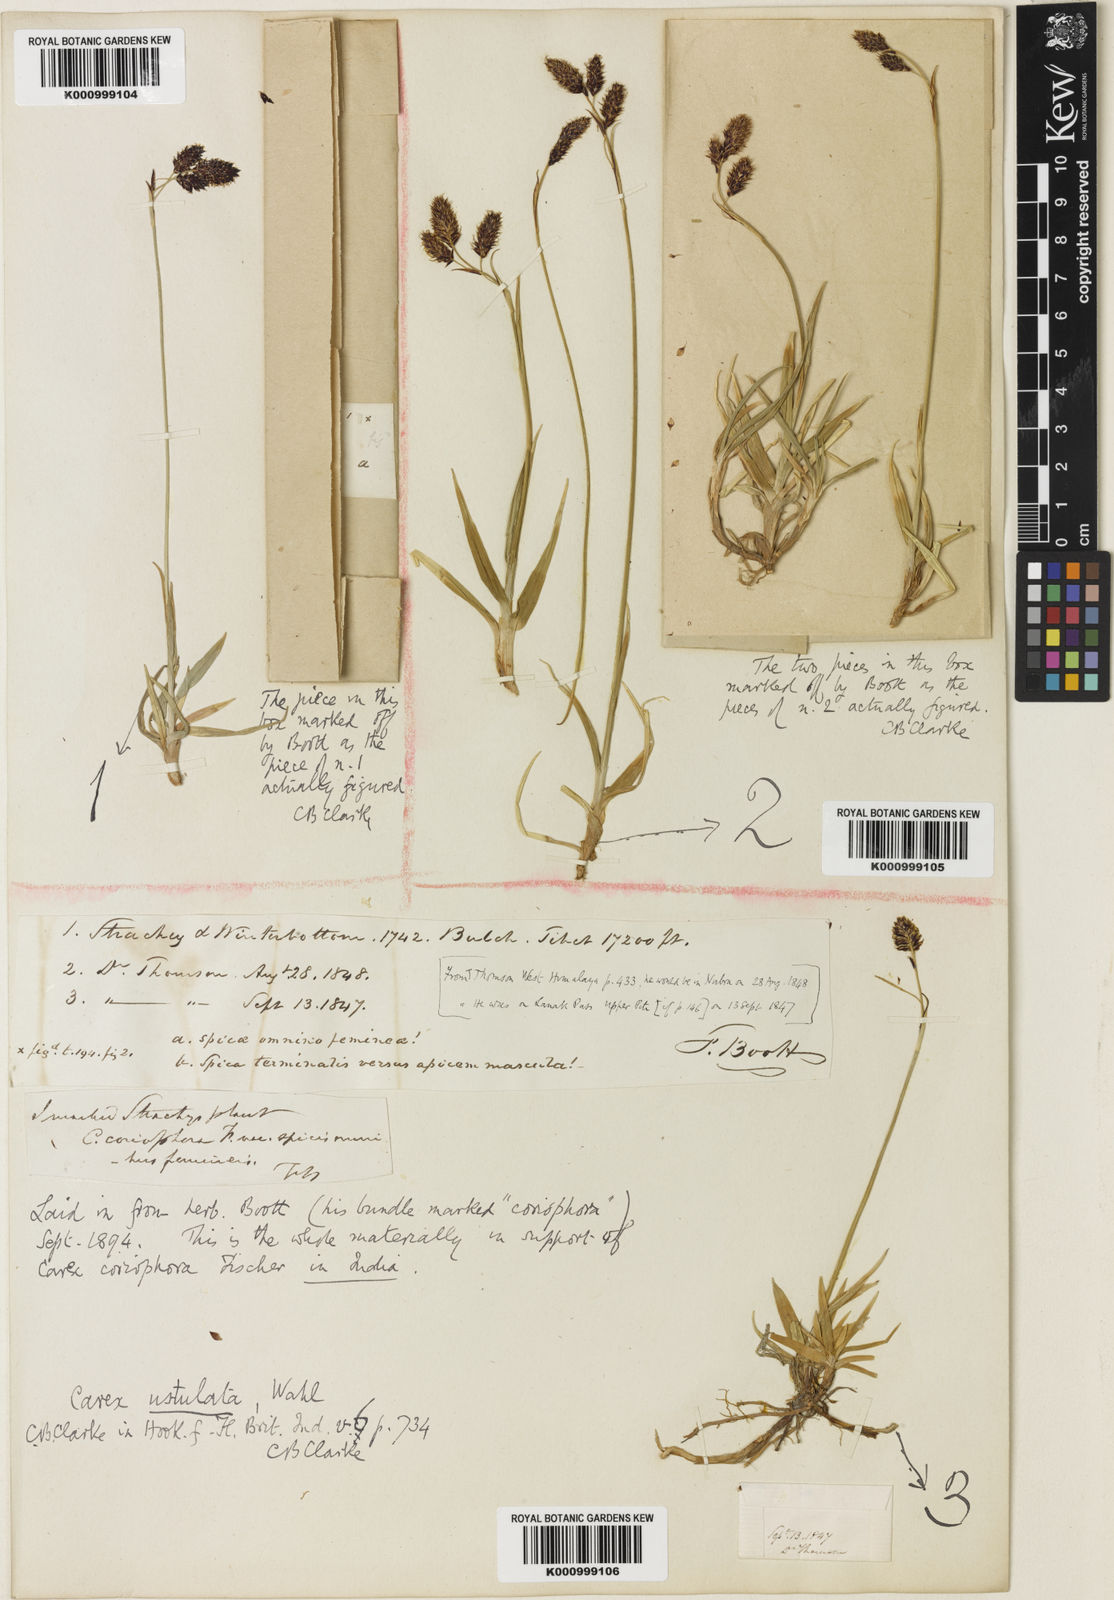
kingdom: Plantae
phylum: Tracheophyta
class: Liliopsida
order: Poales
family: Cyperaceae
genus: Carex
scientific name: Carex hypsobates
